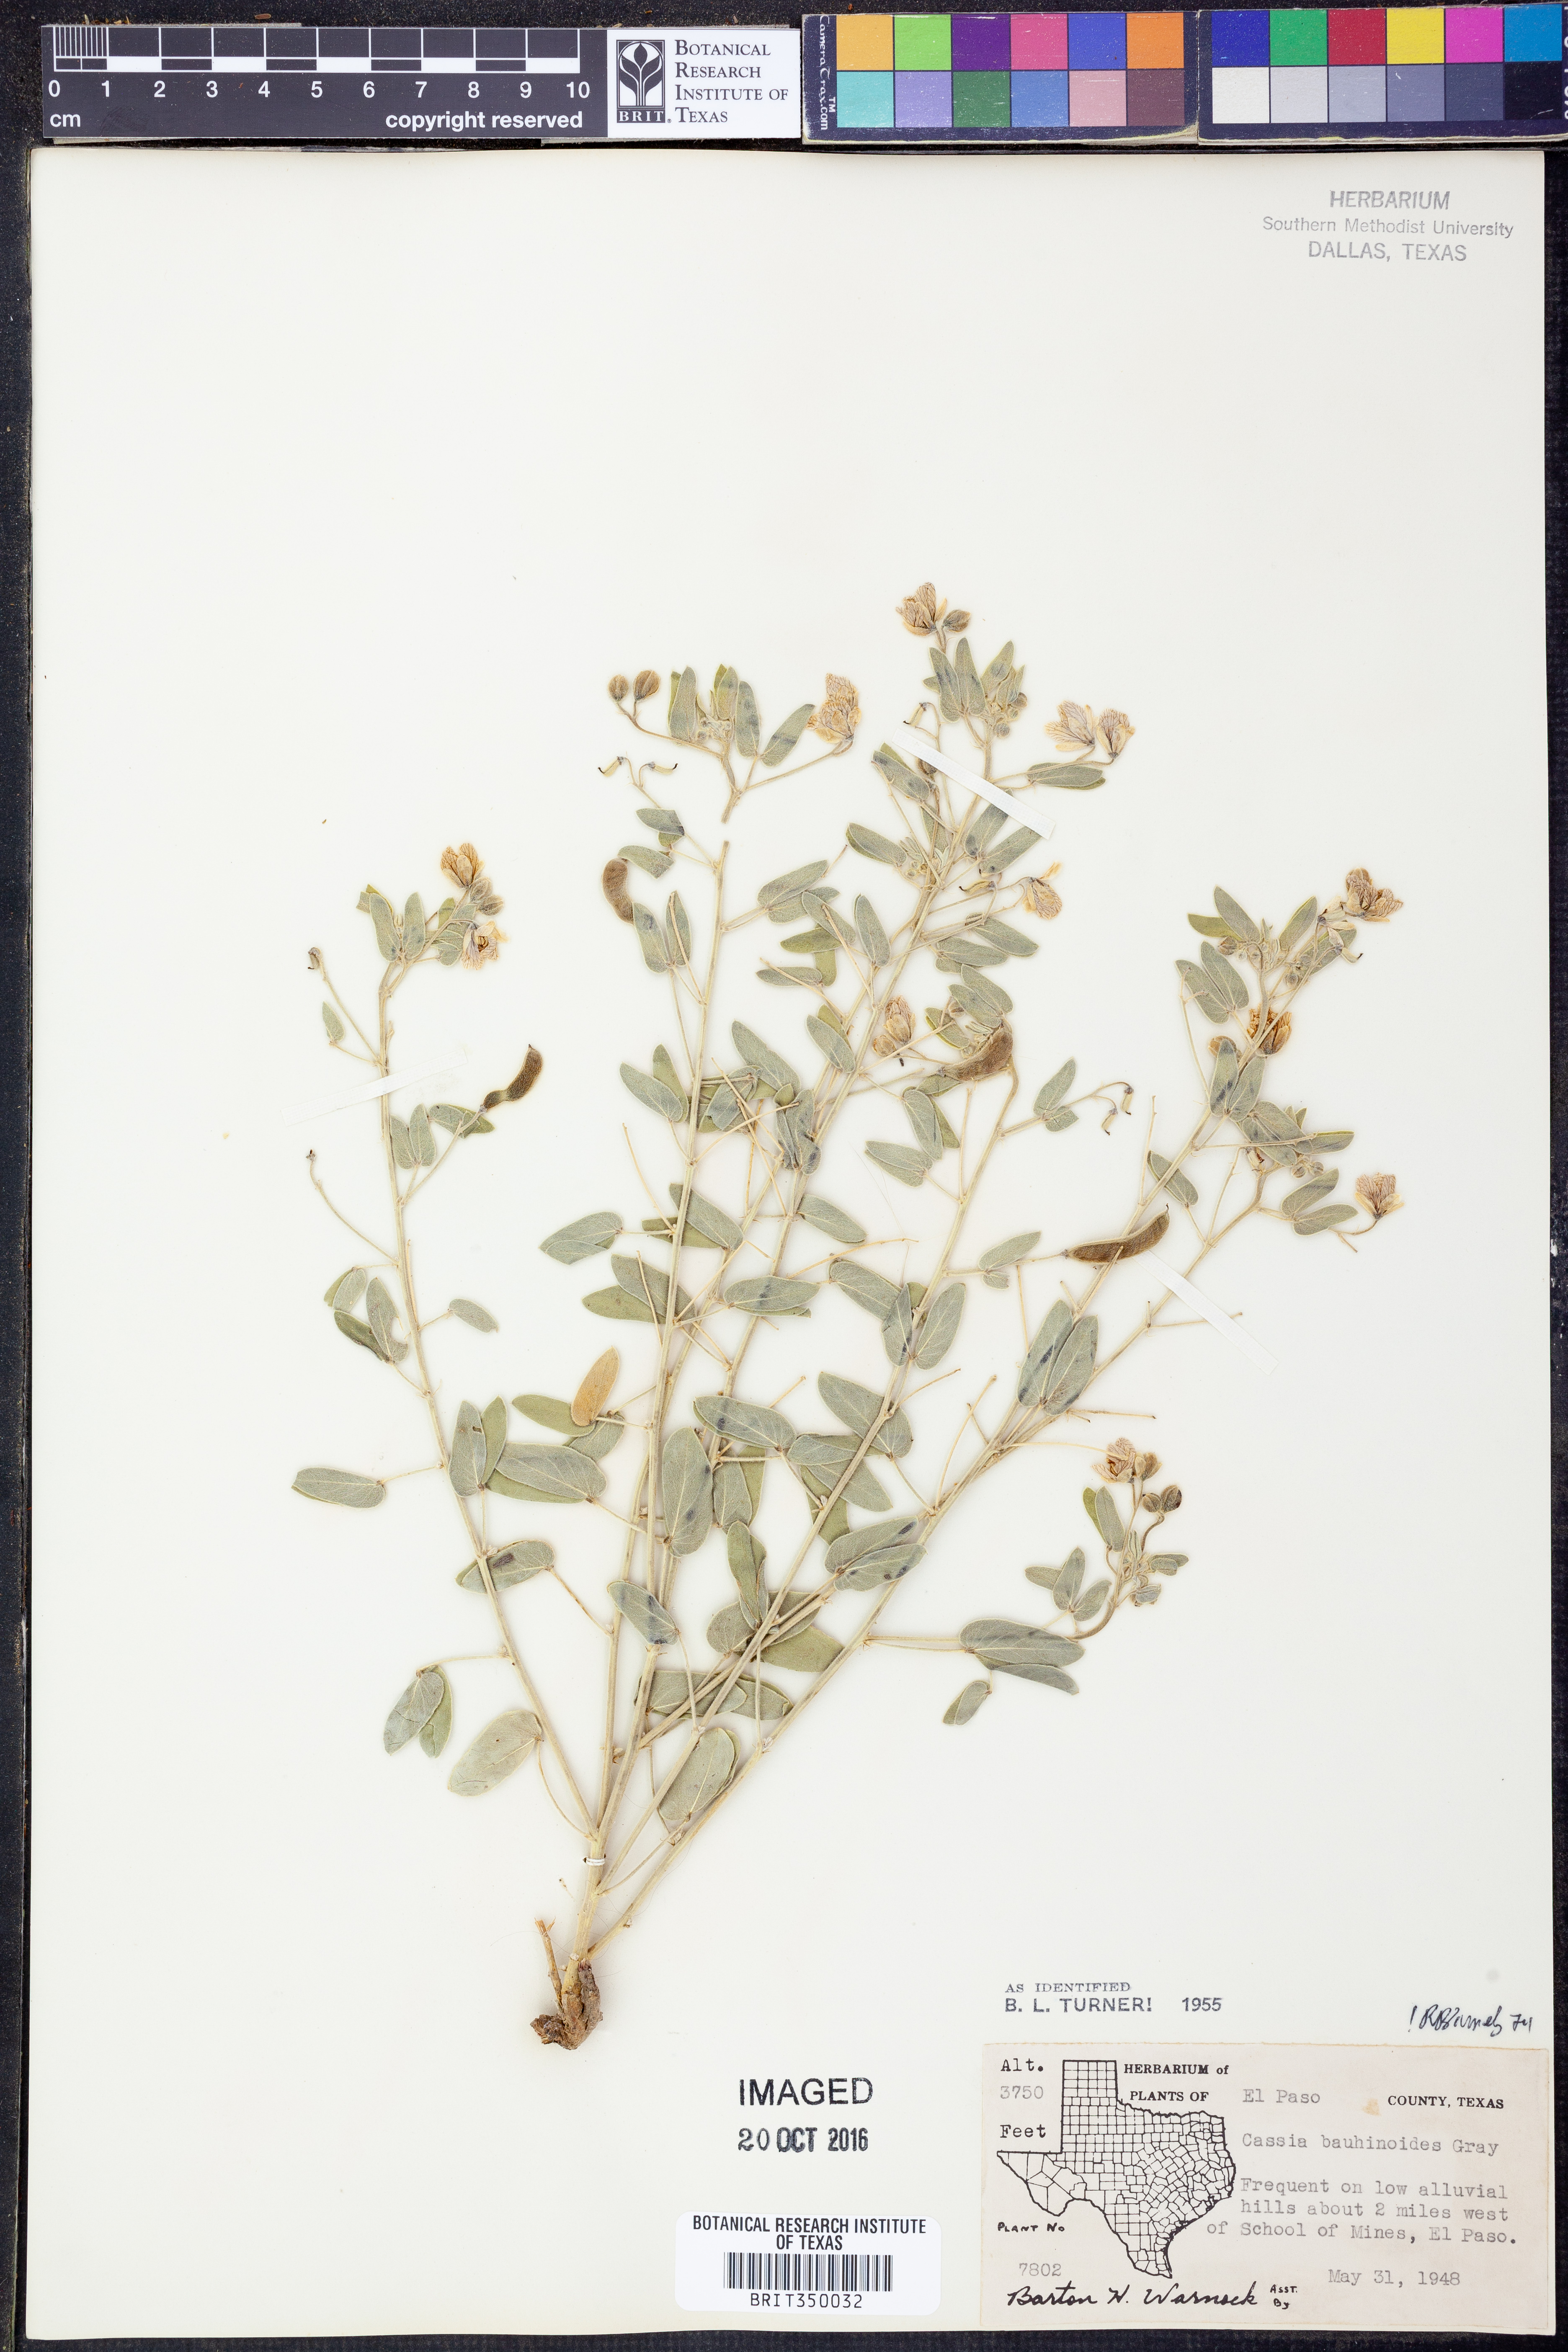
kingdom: Plantae
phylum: Tracheophyta
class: Magnoliopsida
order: Fabales
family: Fabaceae
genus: Senna
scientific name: Senna bauhinioides
